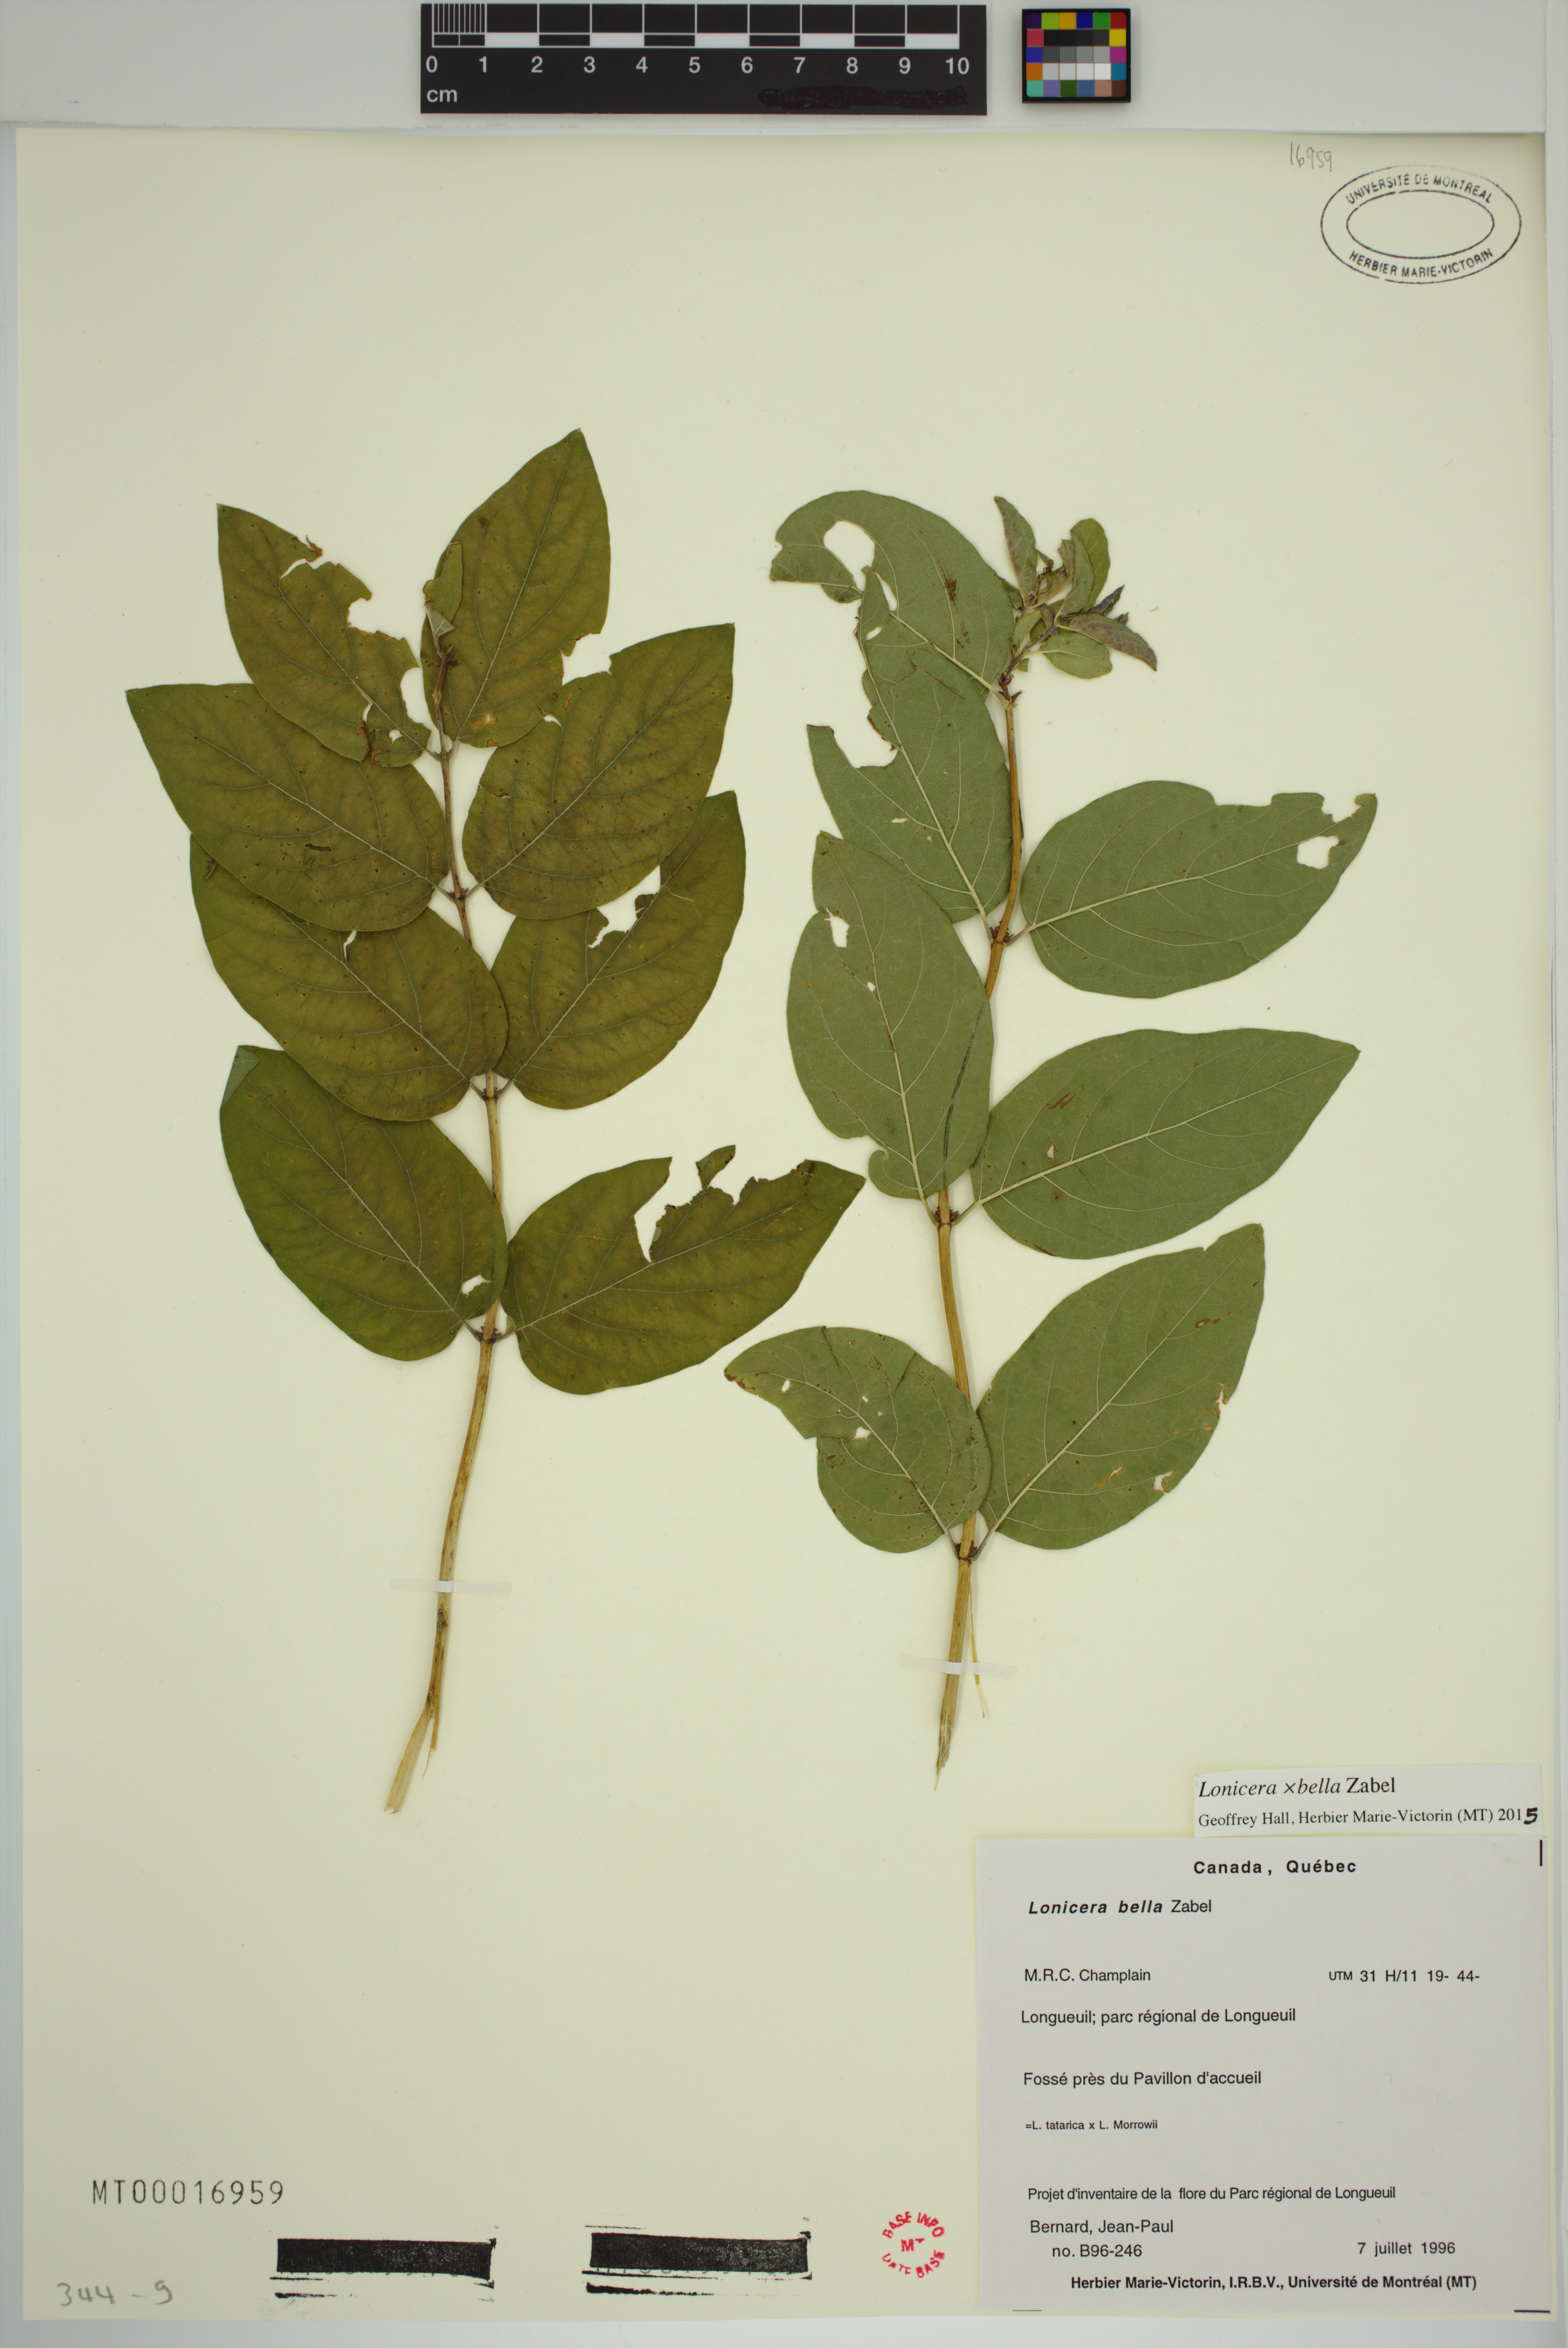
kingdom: Plantae
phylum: Tracheophyta
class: Magnoliopsida
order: Dipsacales
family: Caprifoliaceae
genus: Lonicera
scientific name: Lonicera tatarica
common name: Tatarian honeysuckle
